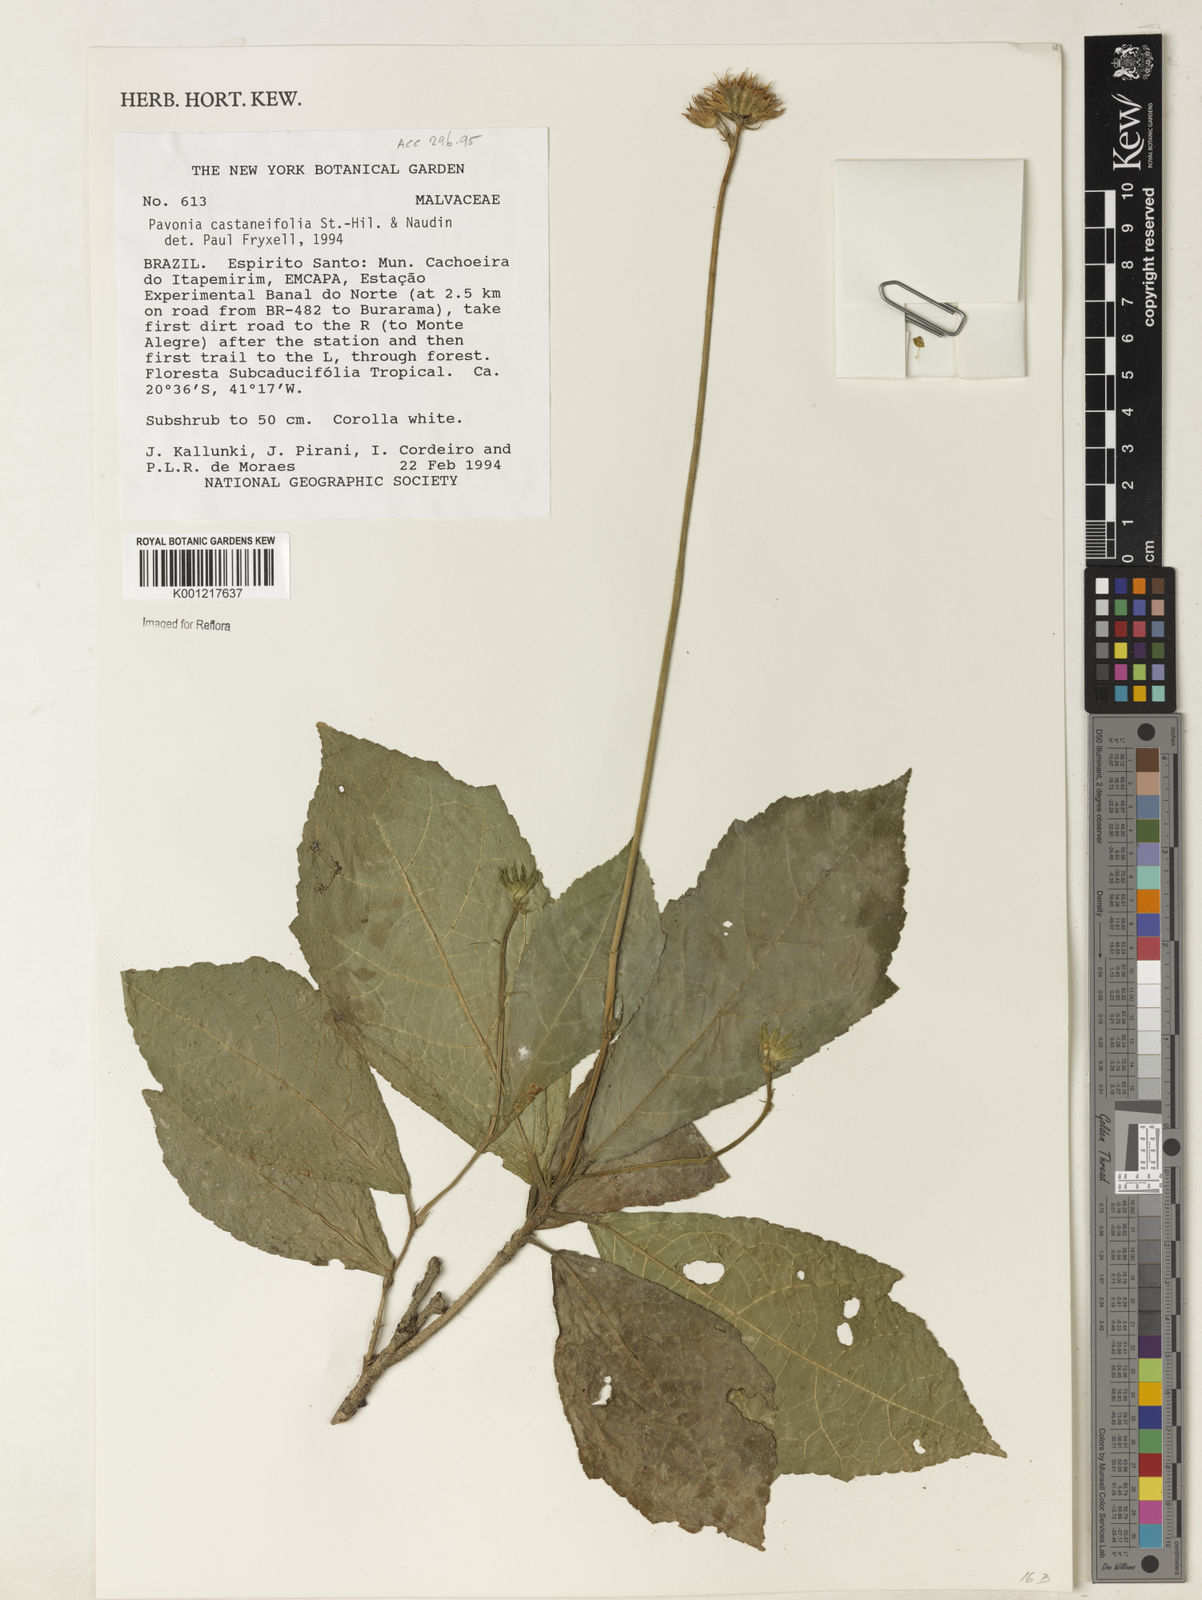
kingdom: Plantae
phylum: Tracheophyta
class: Magnoliopsida
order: Malvales
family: Malvaceae
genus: Pavonia
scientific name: Pavonia castaneifolia
